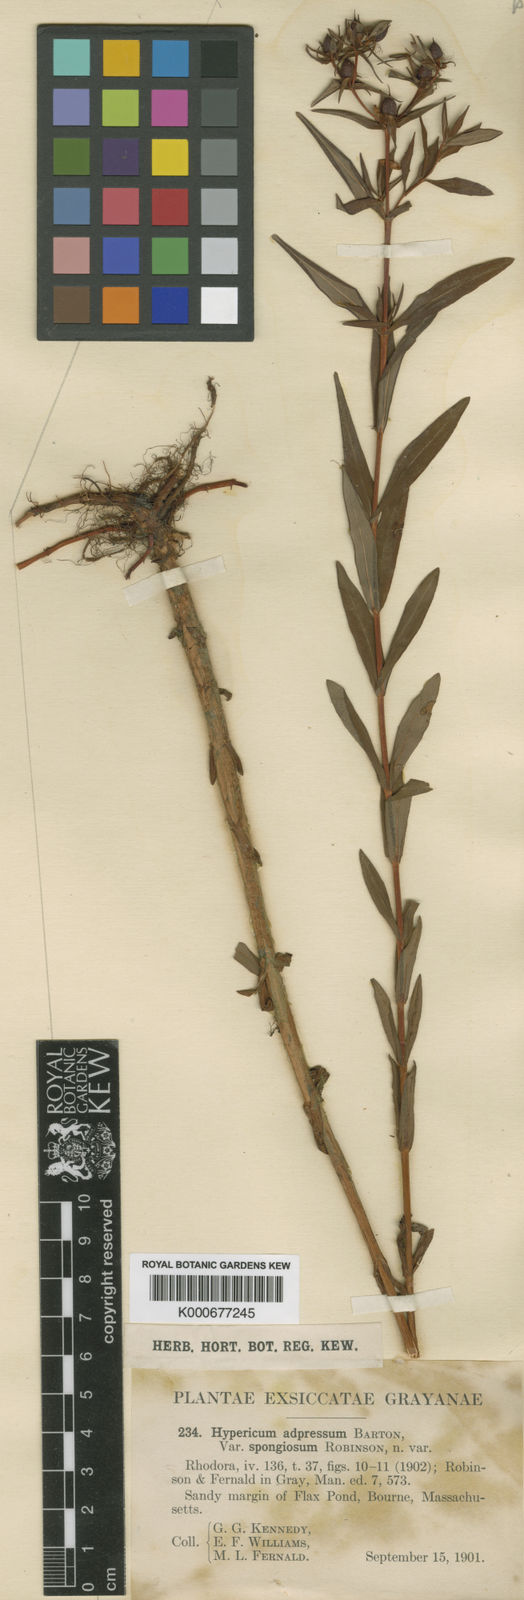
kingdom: Plantae
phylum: Tracheophyta
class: Magnoliopsida
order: Malpighiales
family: Hypericaceae
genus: Hypericum
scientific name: Hypericum adpressum
